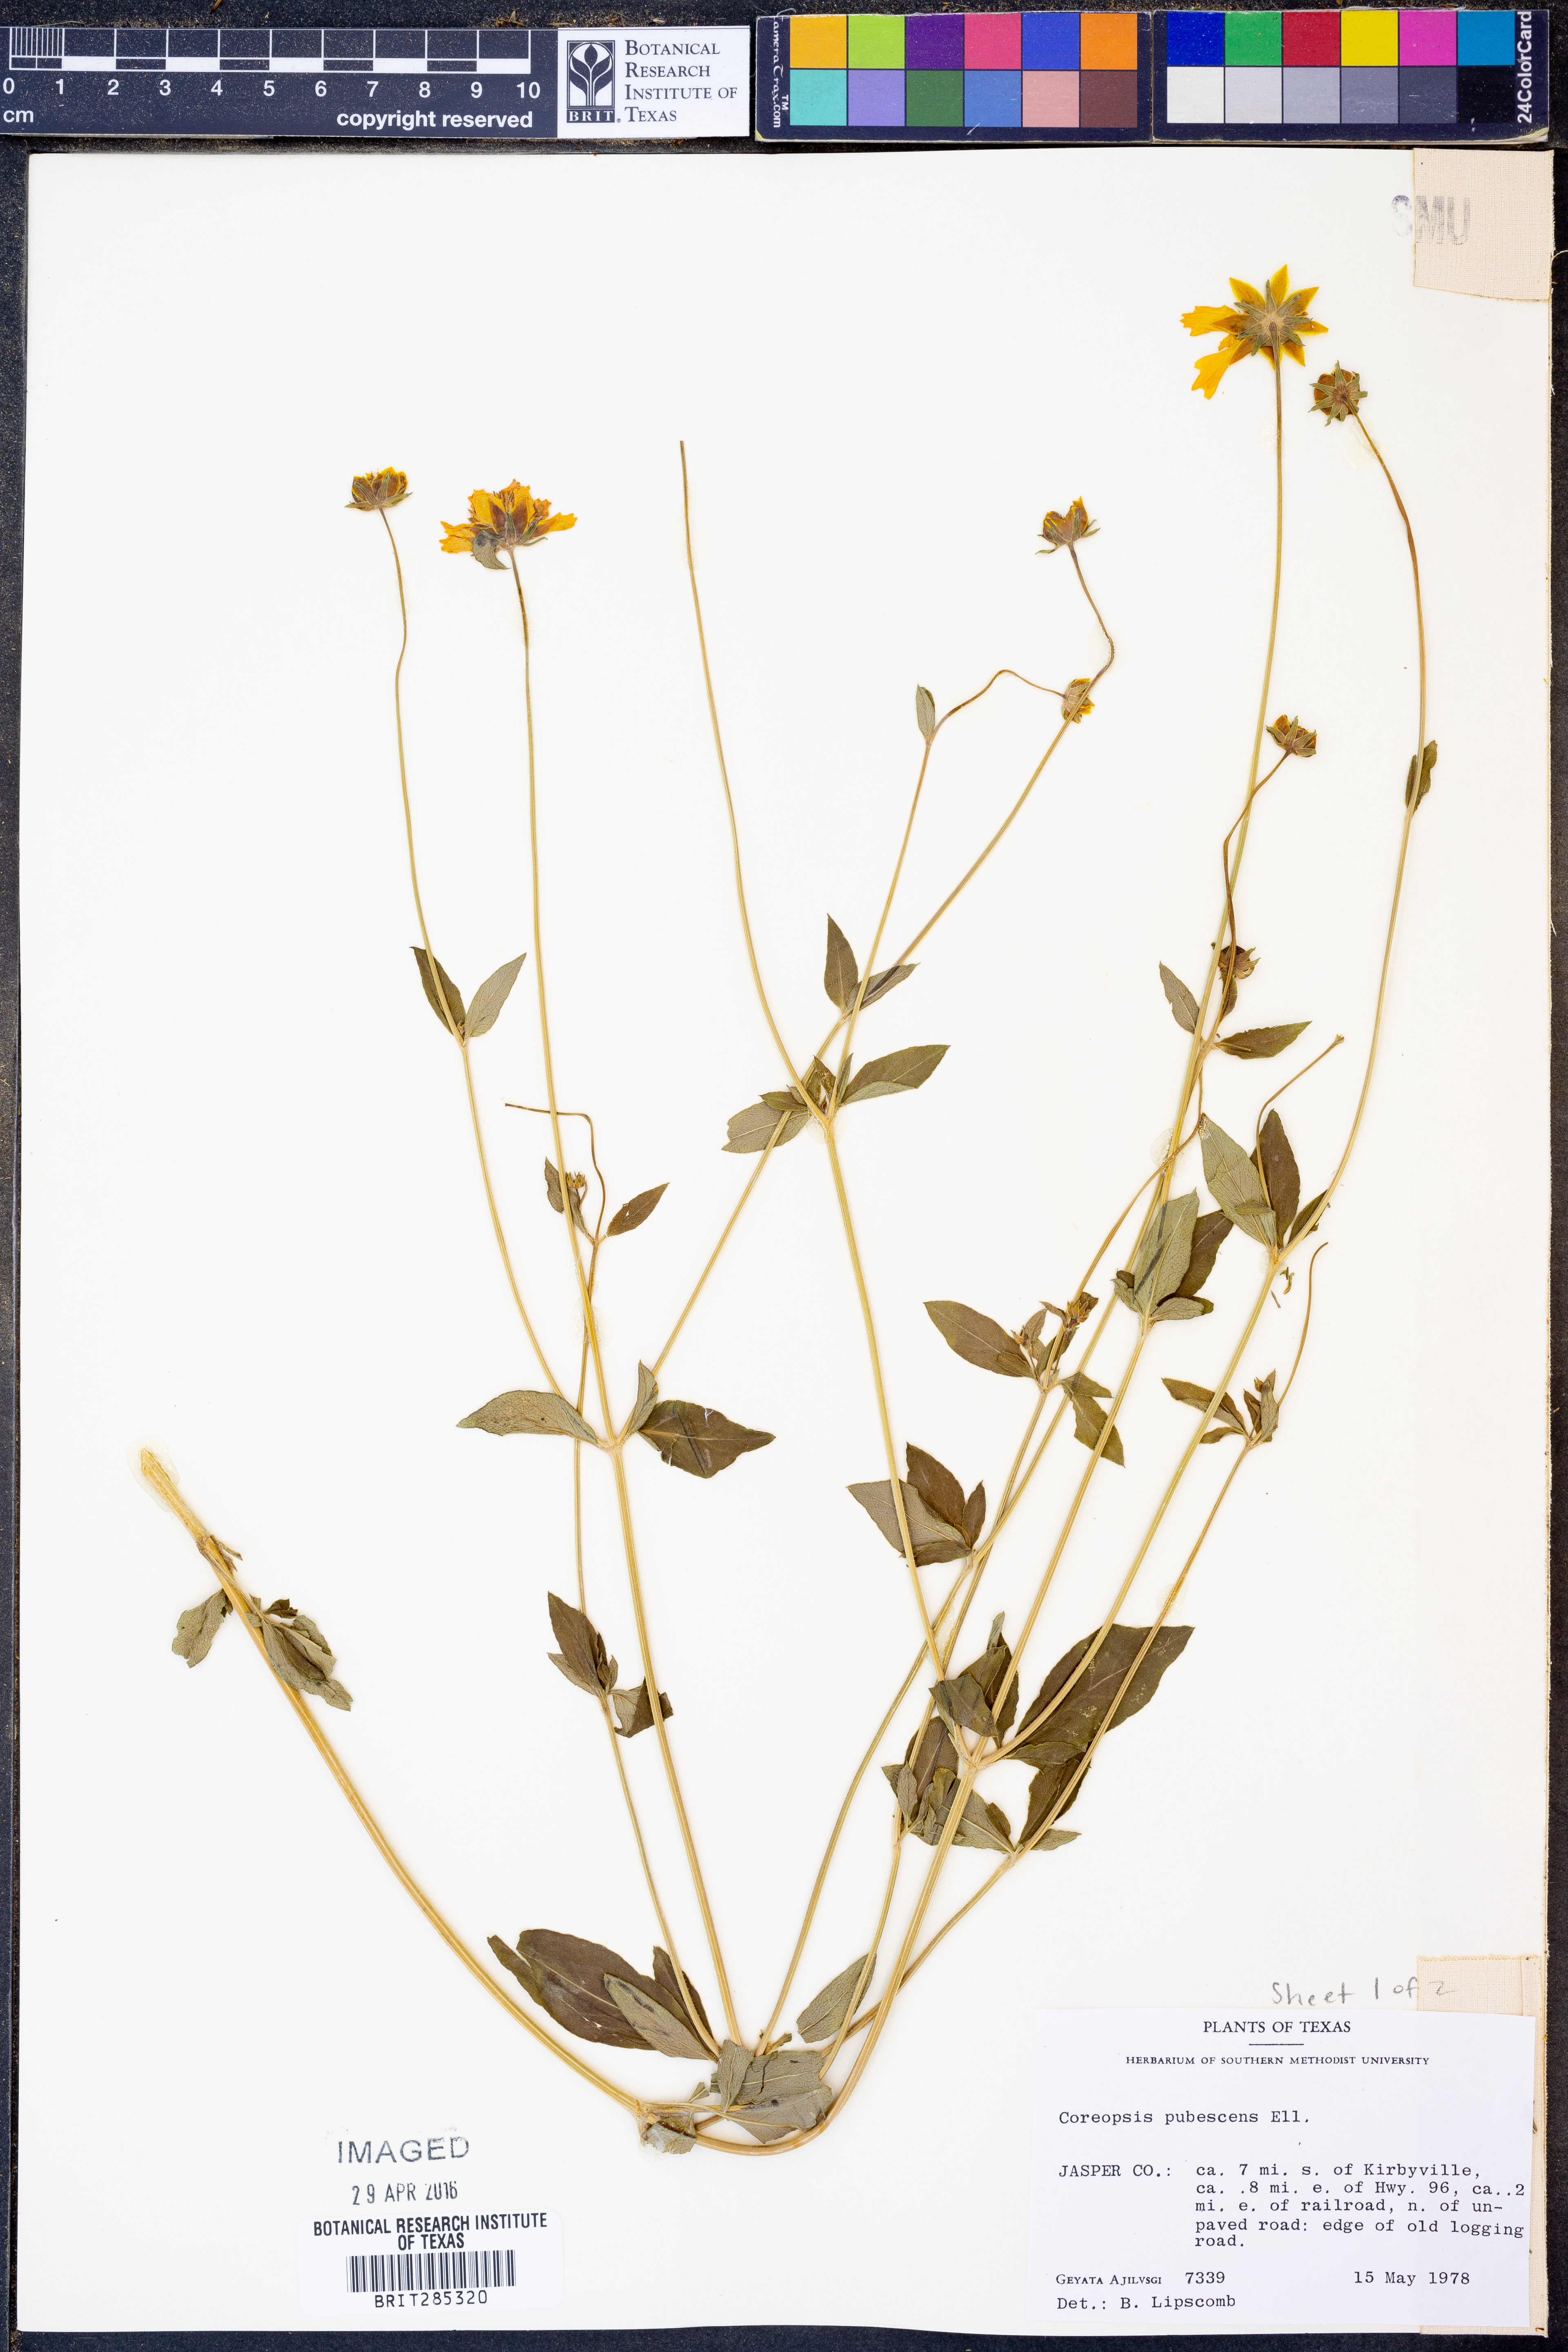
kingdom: Plantae
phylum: Tracheophyta
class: Magnoliopsida
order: Asterales
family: Asteraceae
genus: Coreopsis
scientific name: Coreopsis pubescens
